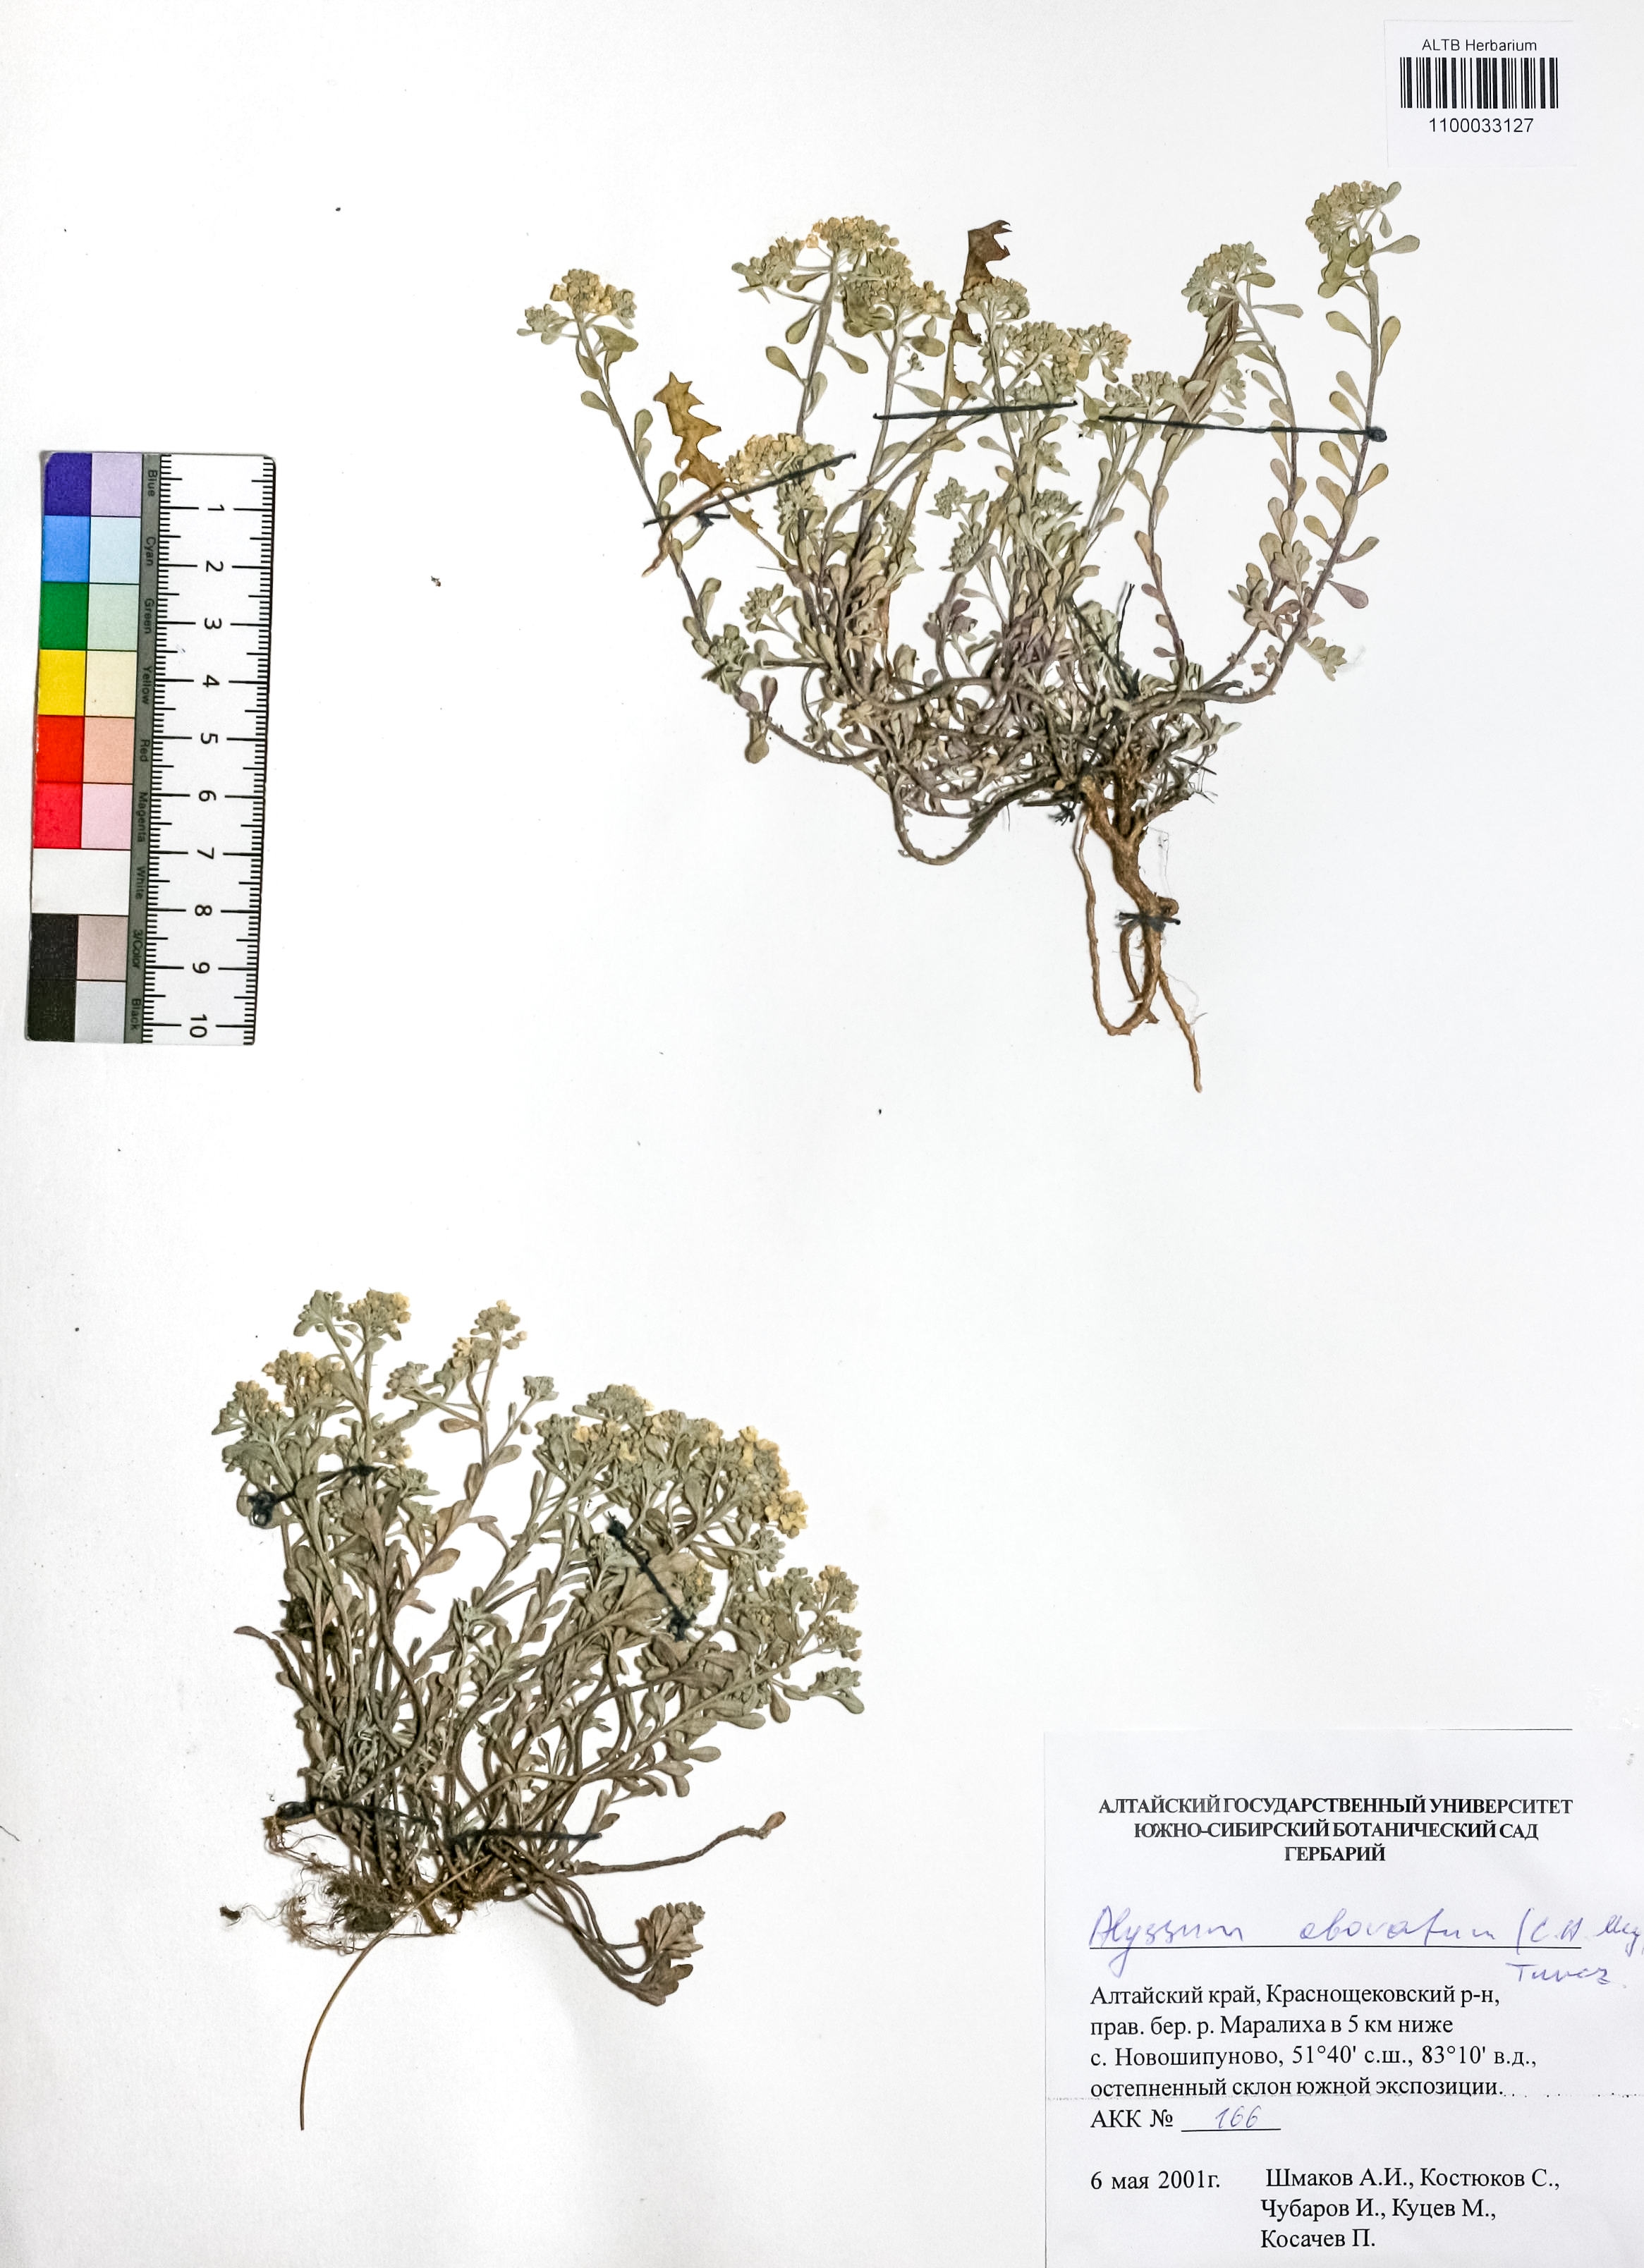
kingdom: Plantae
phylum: Tracheophyta
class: Magnoliopsida
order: Brassicales
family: Brassicaceae
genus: Odontarrhena
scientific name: Odontarrhena obovata
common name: American alyssum
